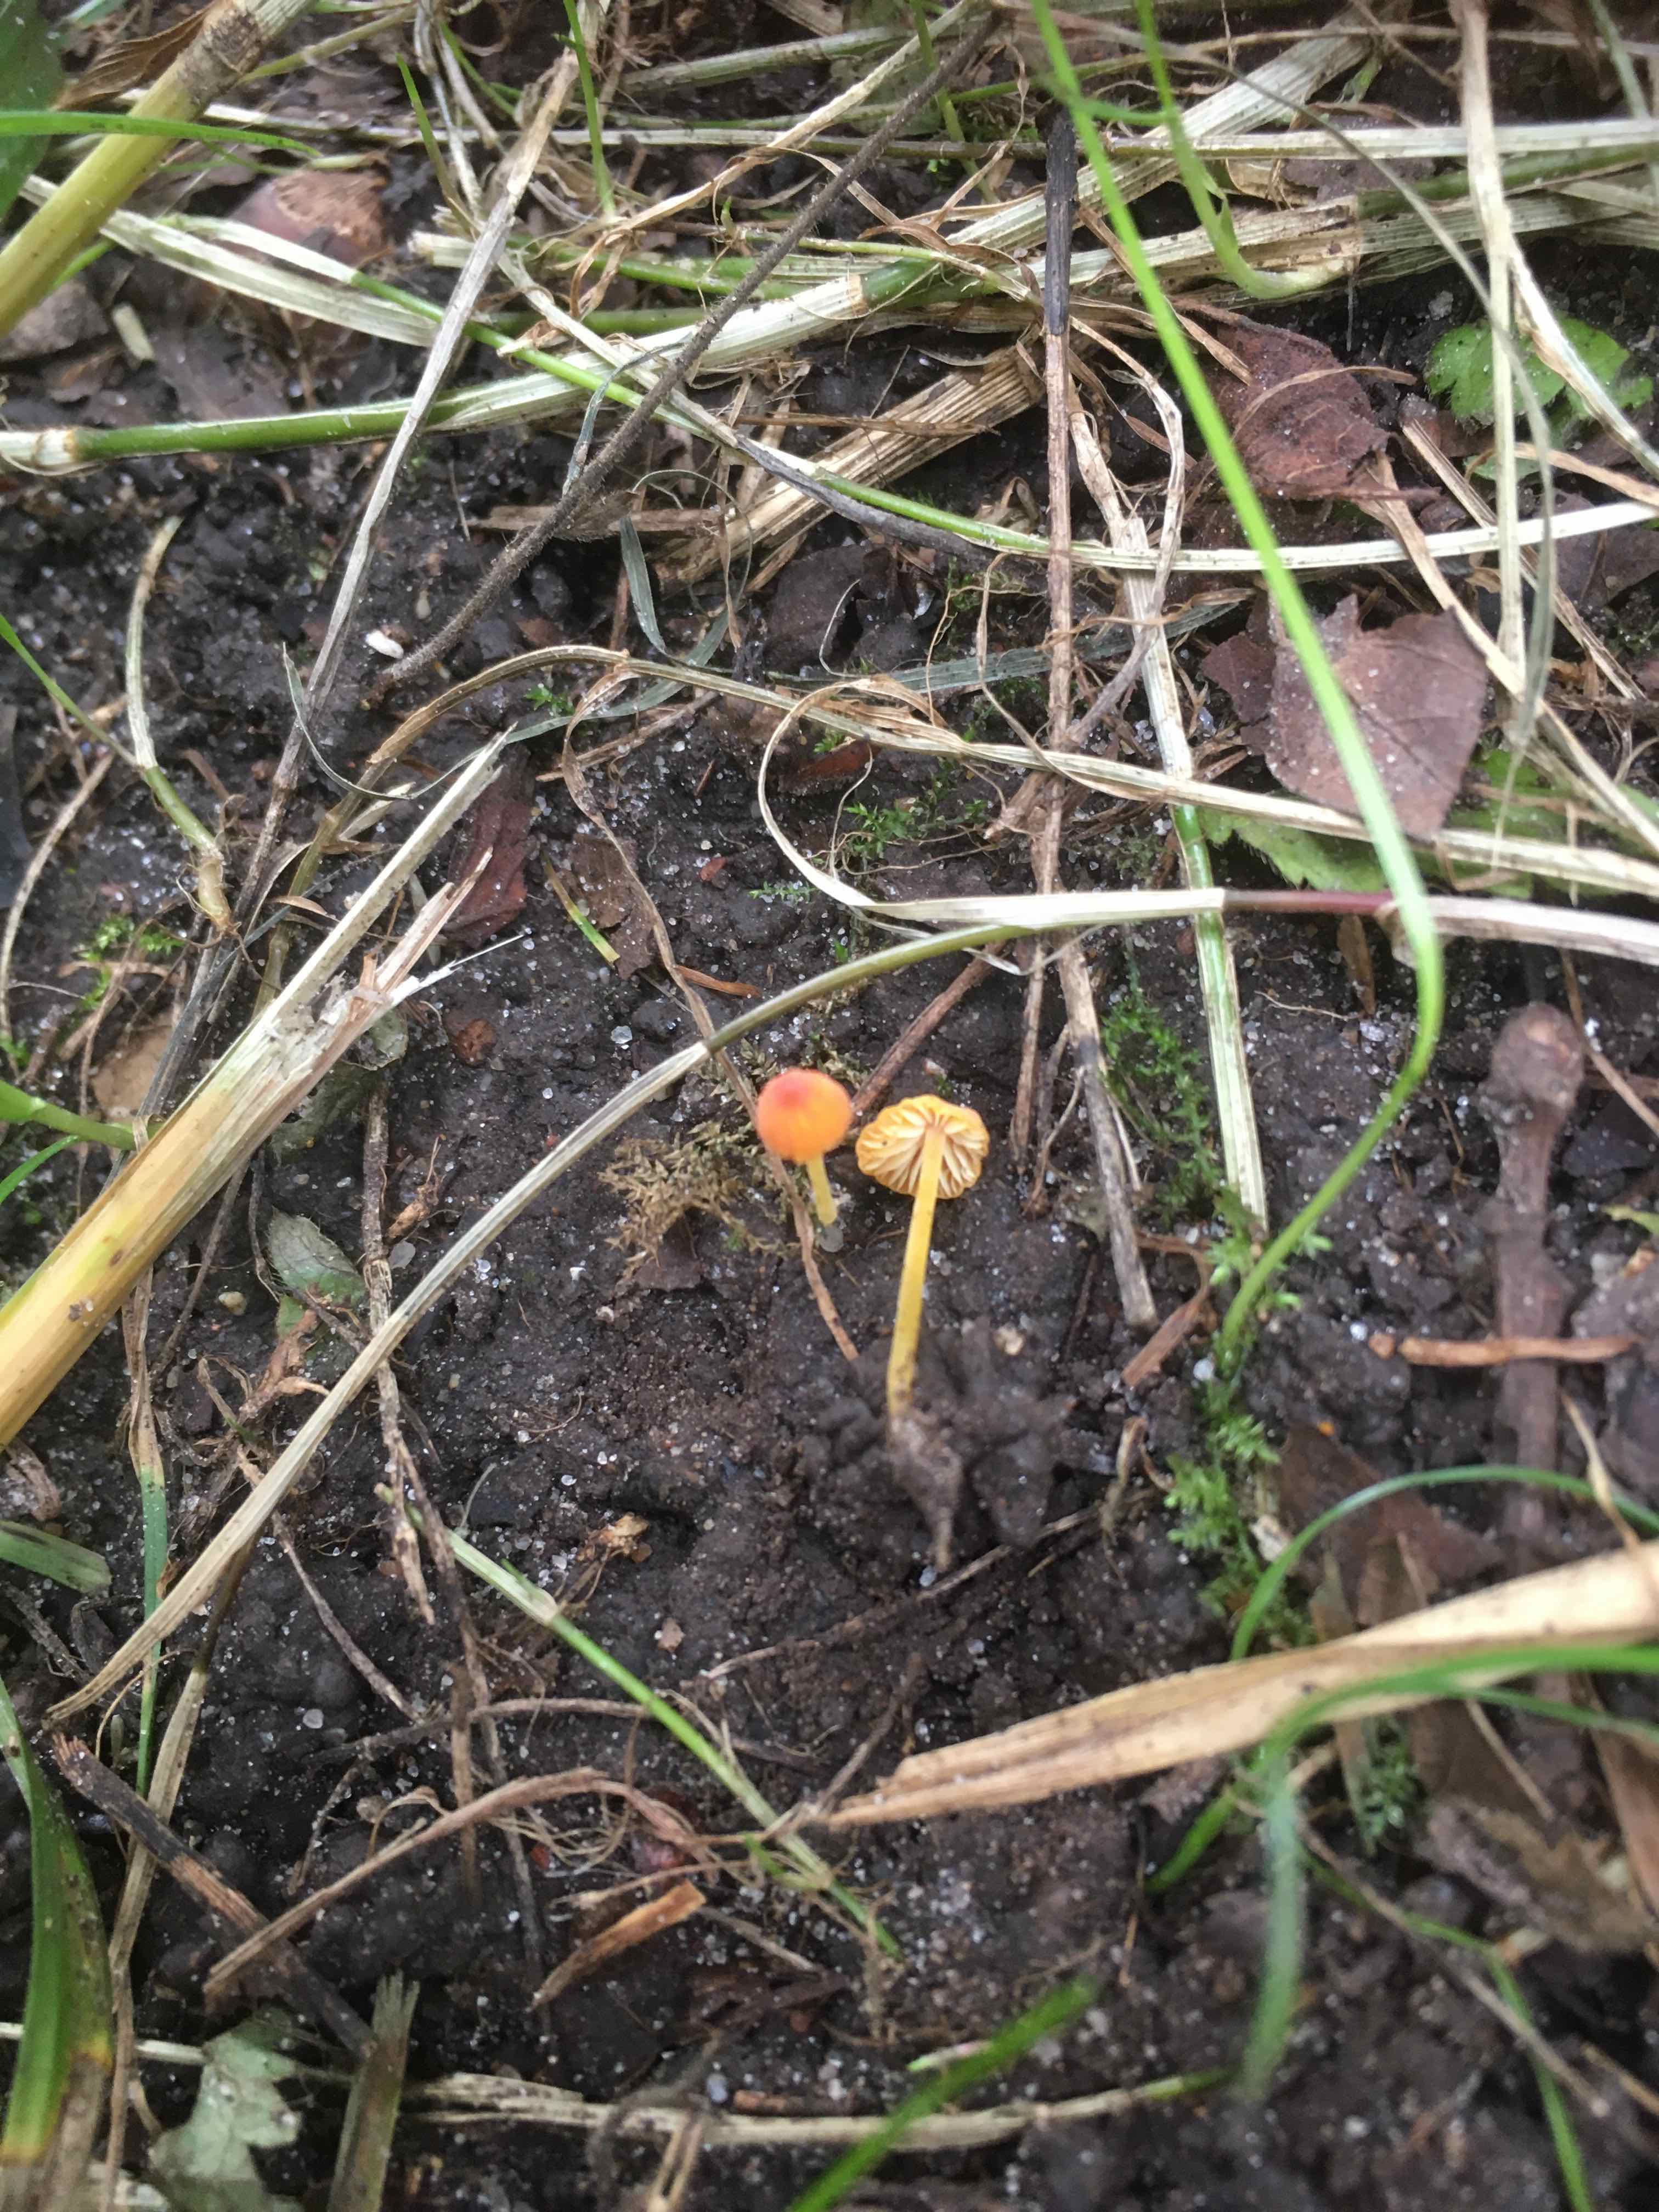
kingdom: Fungi
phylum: Basidiomycota
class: Agaricomycetes
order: Agaricales
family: Mycenaceae
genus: Mycena
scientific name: Mycena acicula
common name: orange huesvamp
